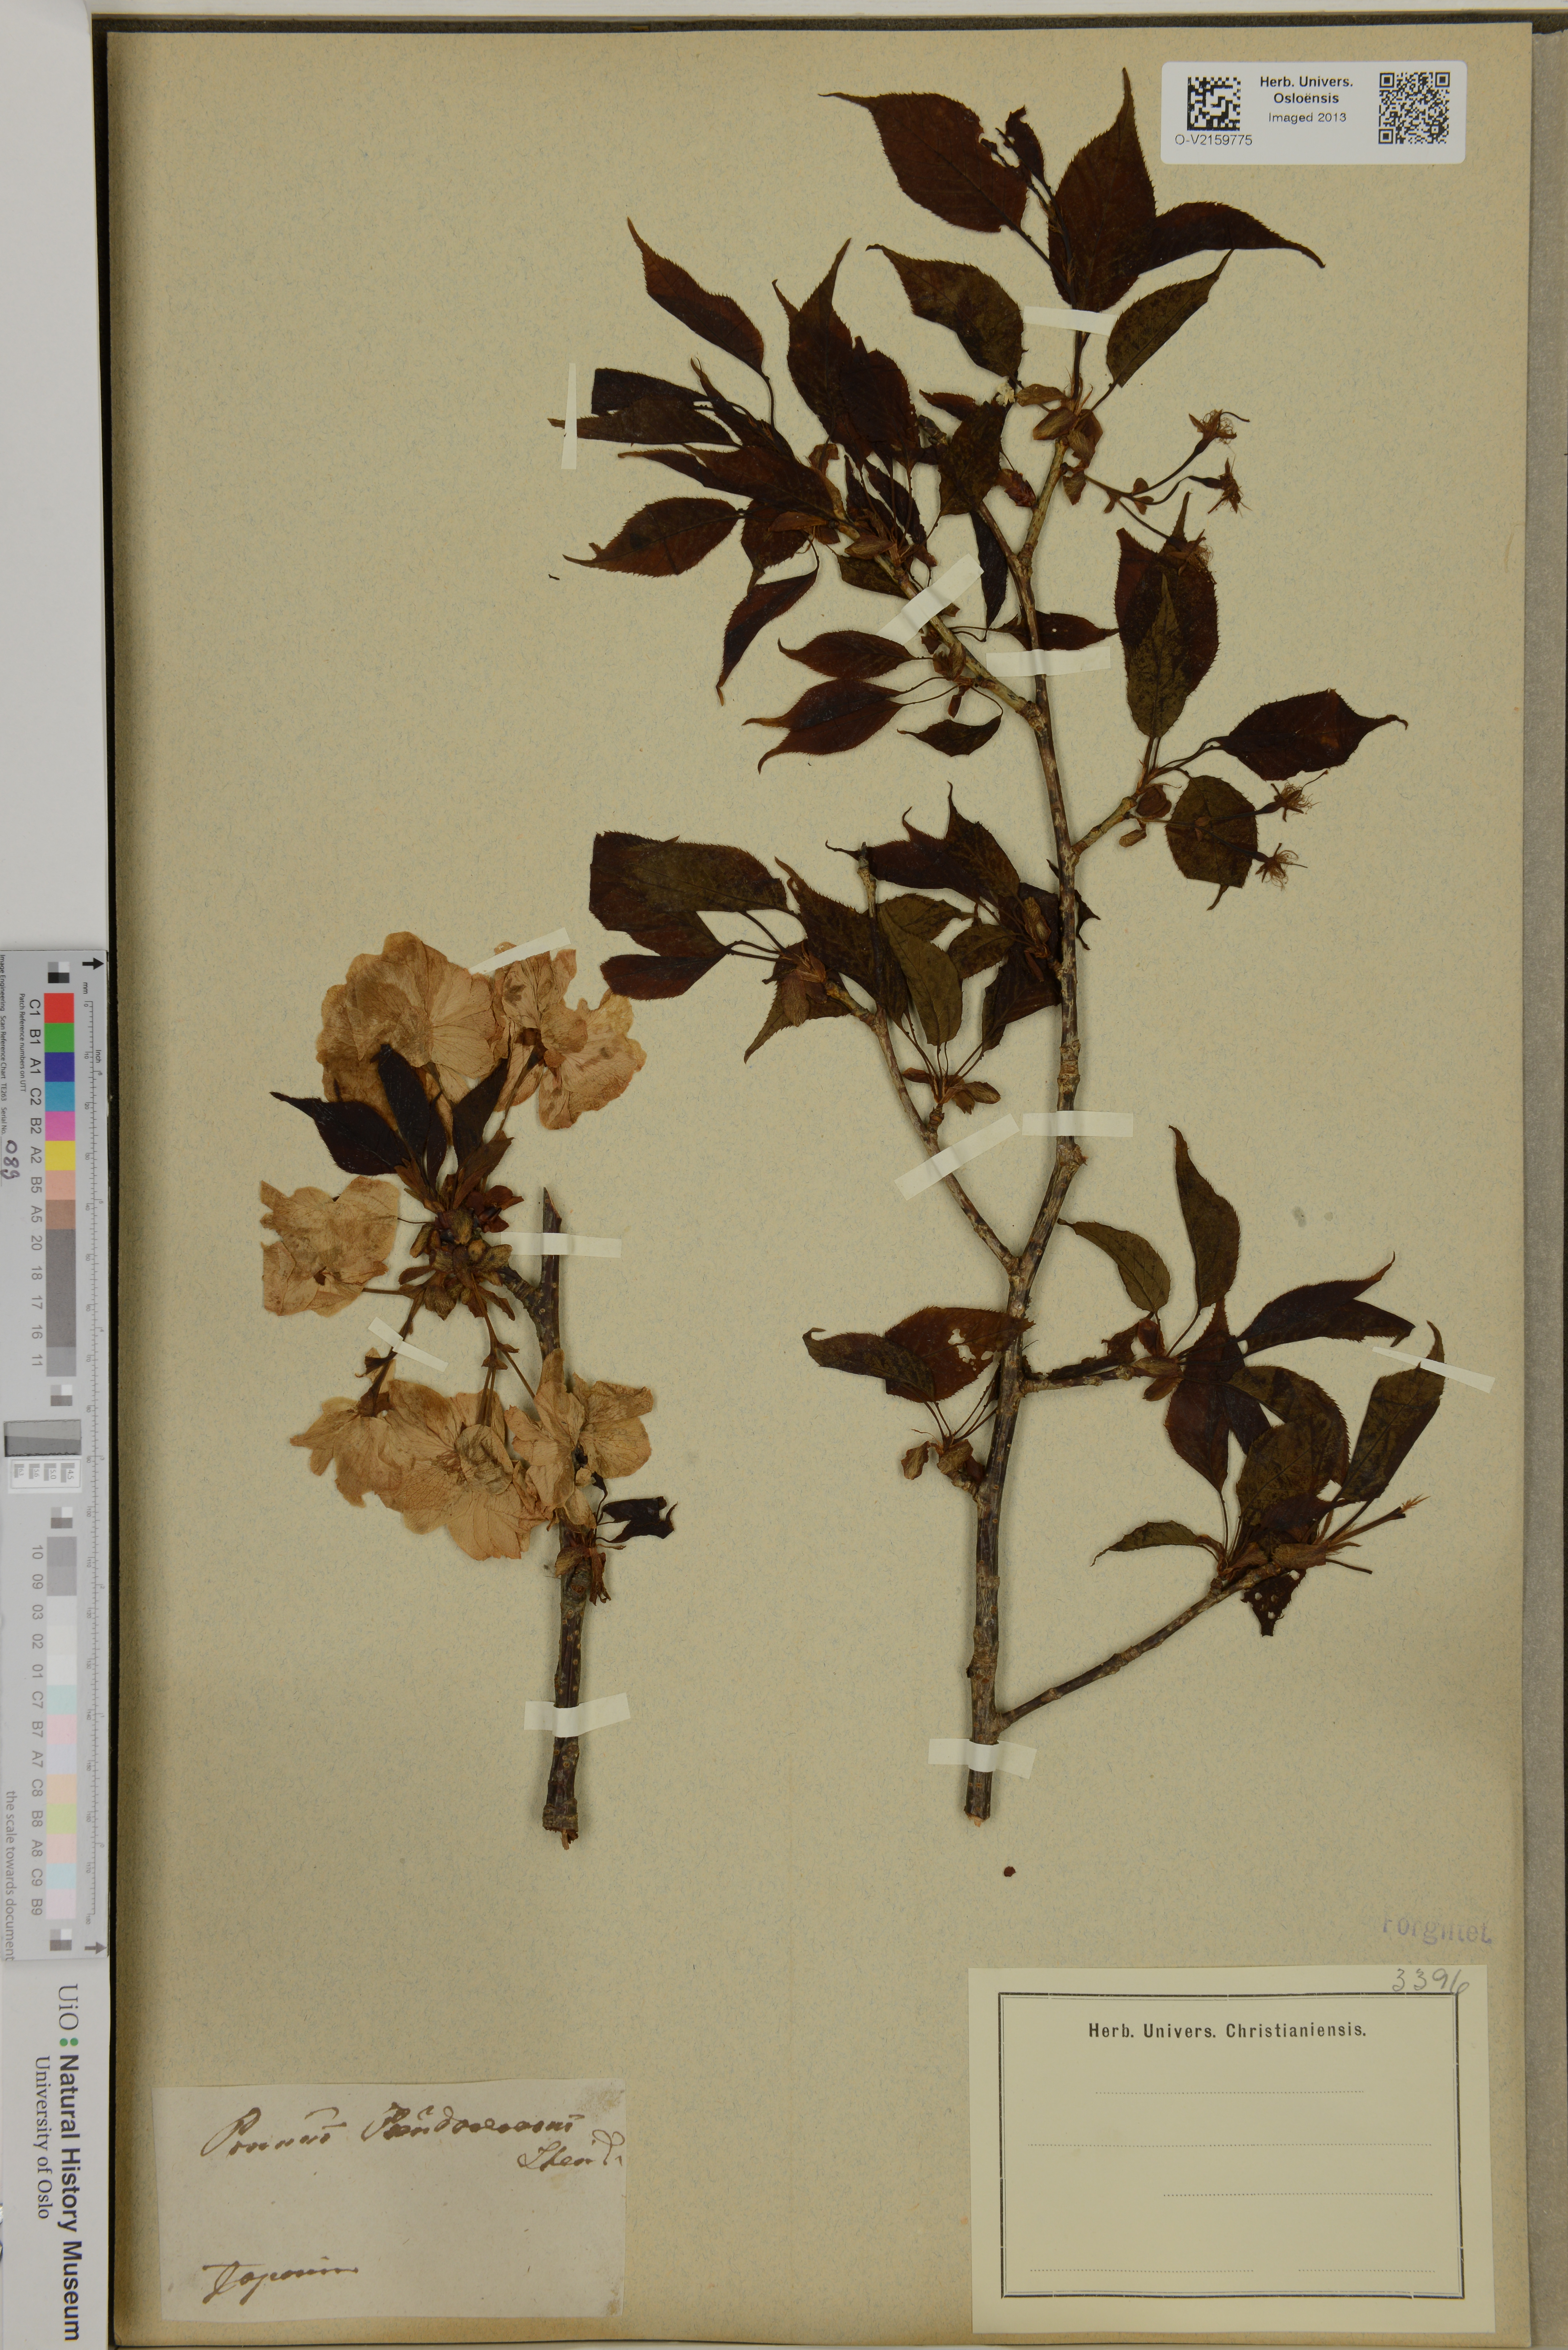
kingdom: Plantae
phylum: Tracheophyta
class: Magnoliopsida
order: Rosales
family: Rosaceae
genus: Prunus
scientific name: Prunus
